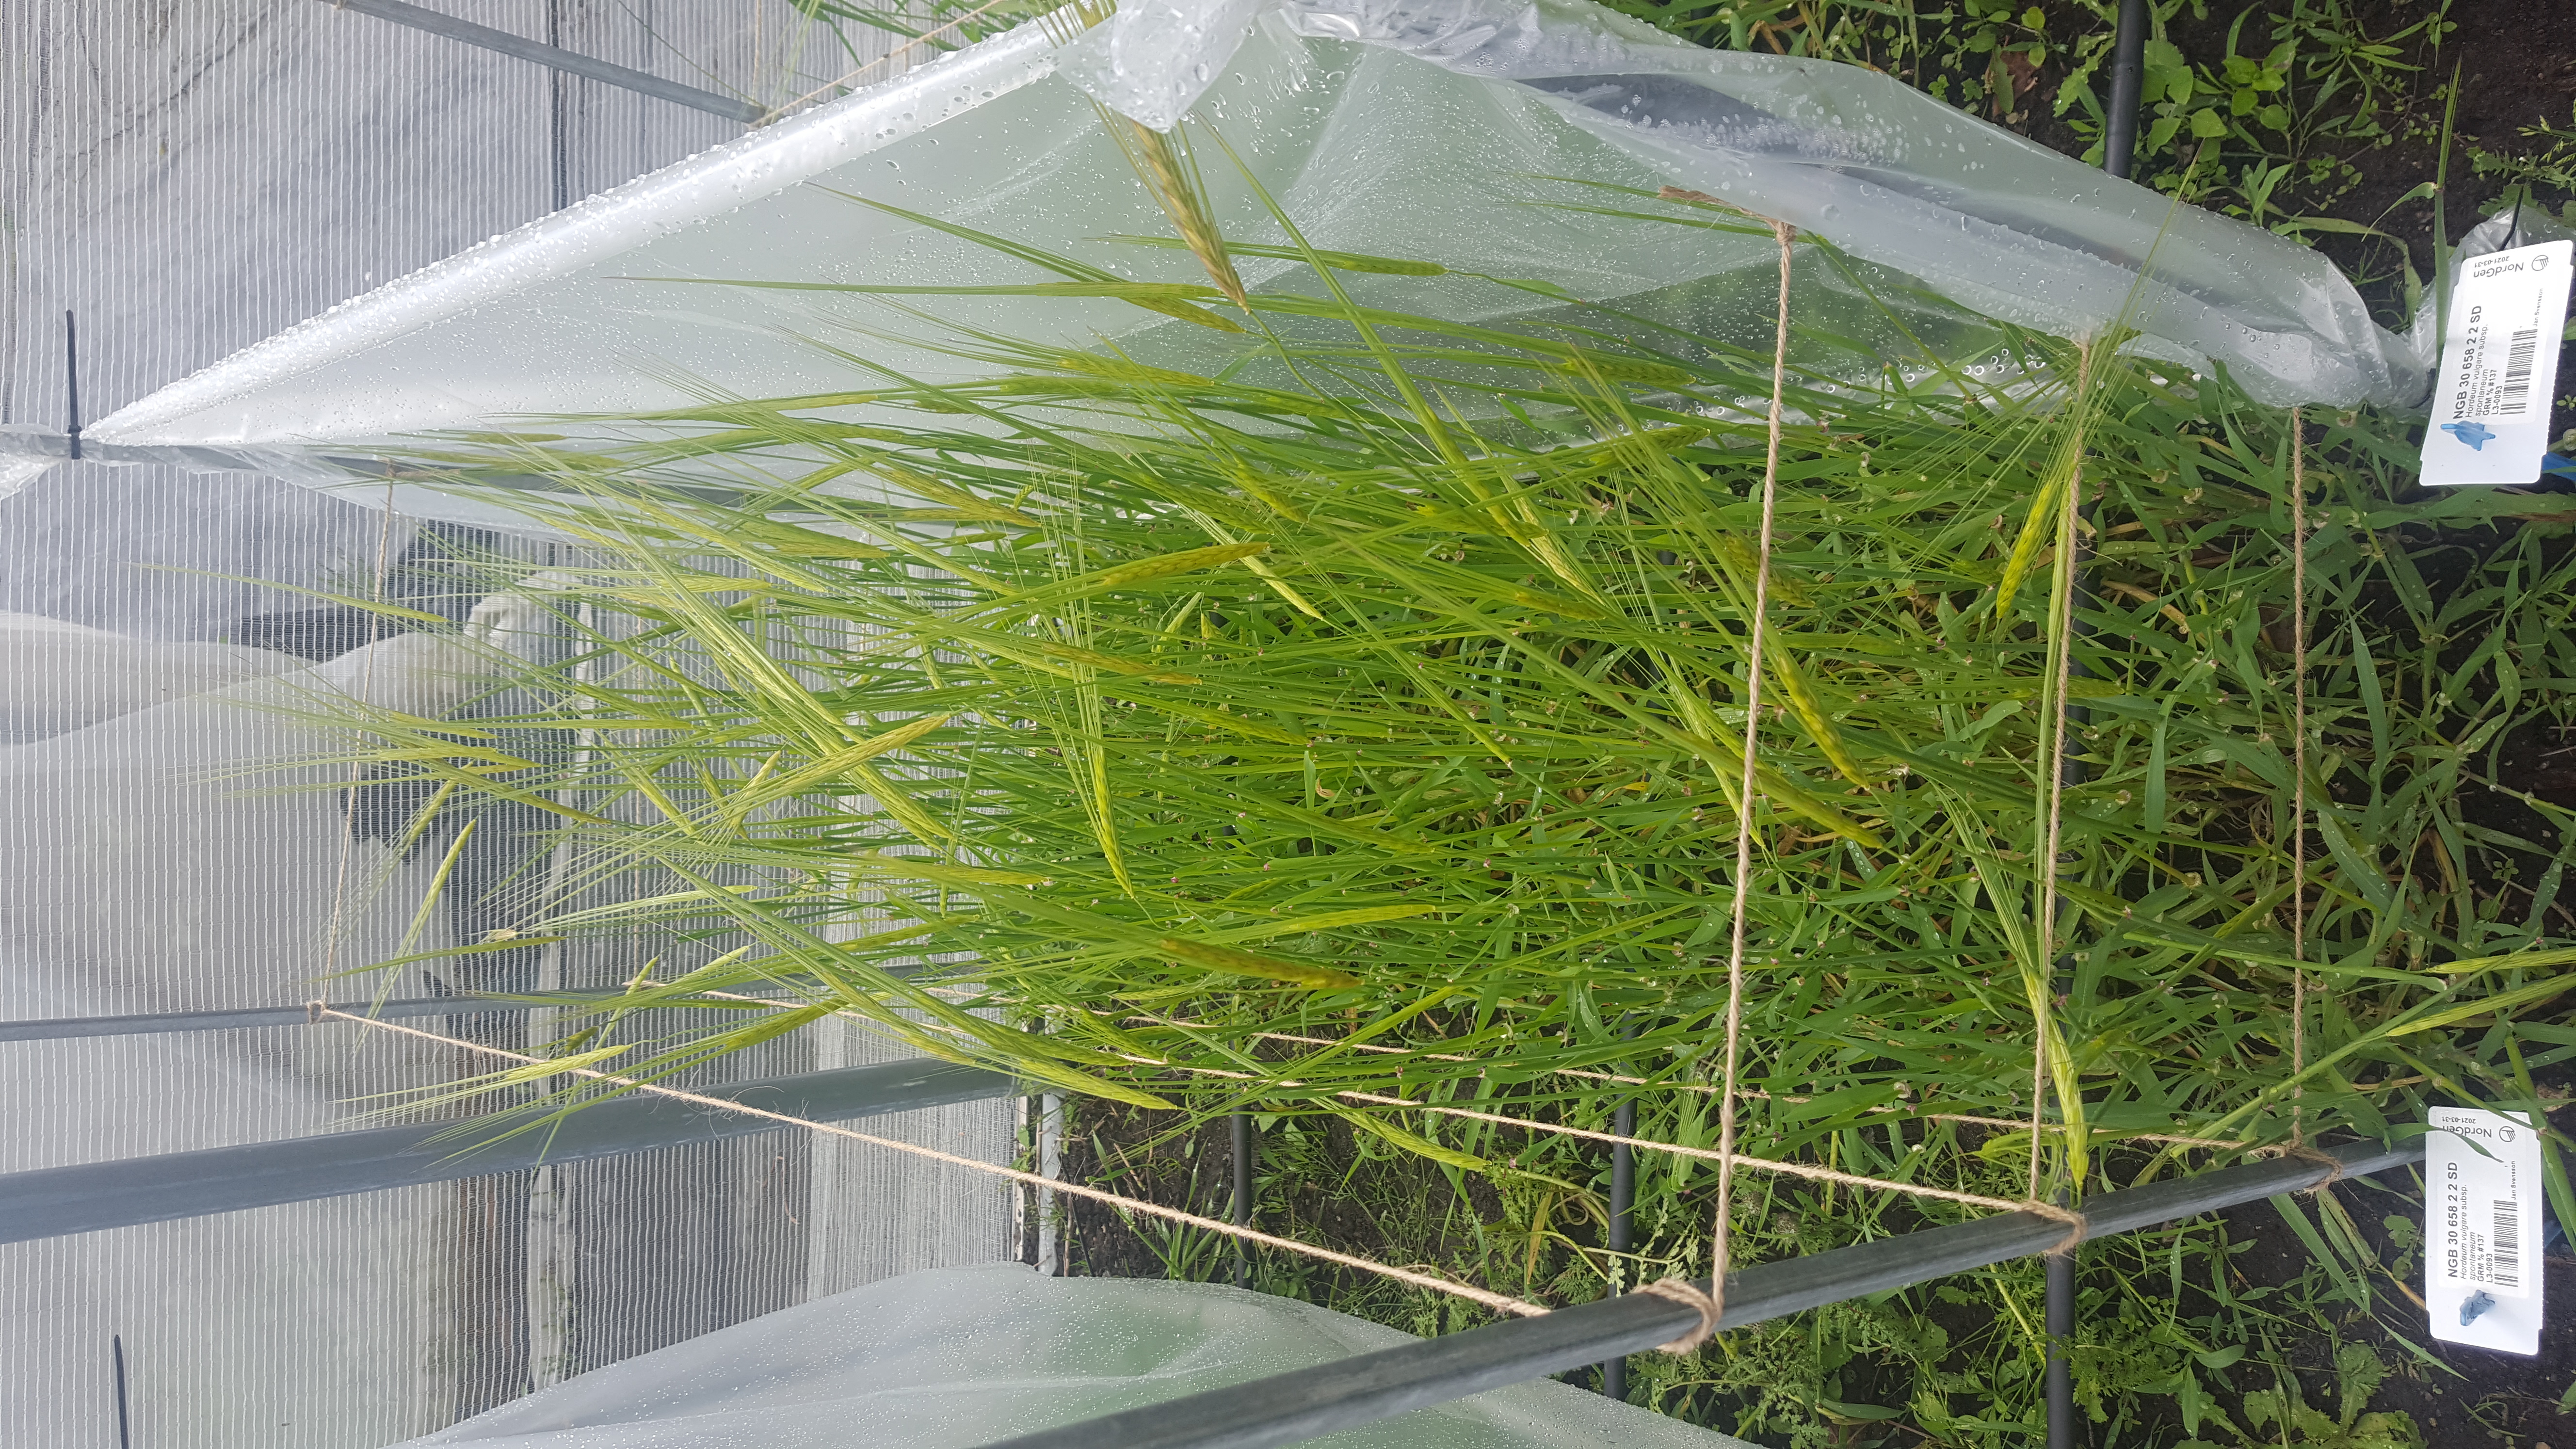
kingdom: Plantae
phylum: Tracheophyta
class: Liliopsida
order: Poales
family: Poaceae
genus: Hordeum
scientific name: Hordeum spontaneum
